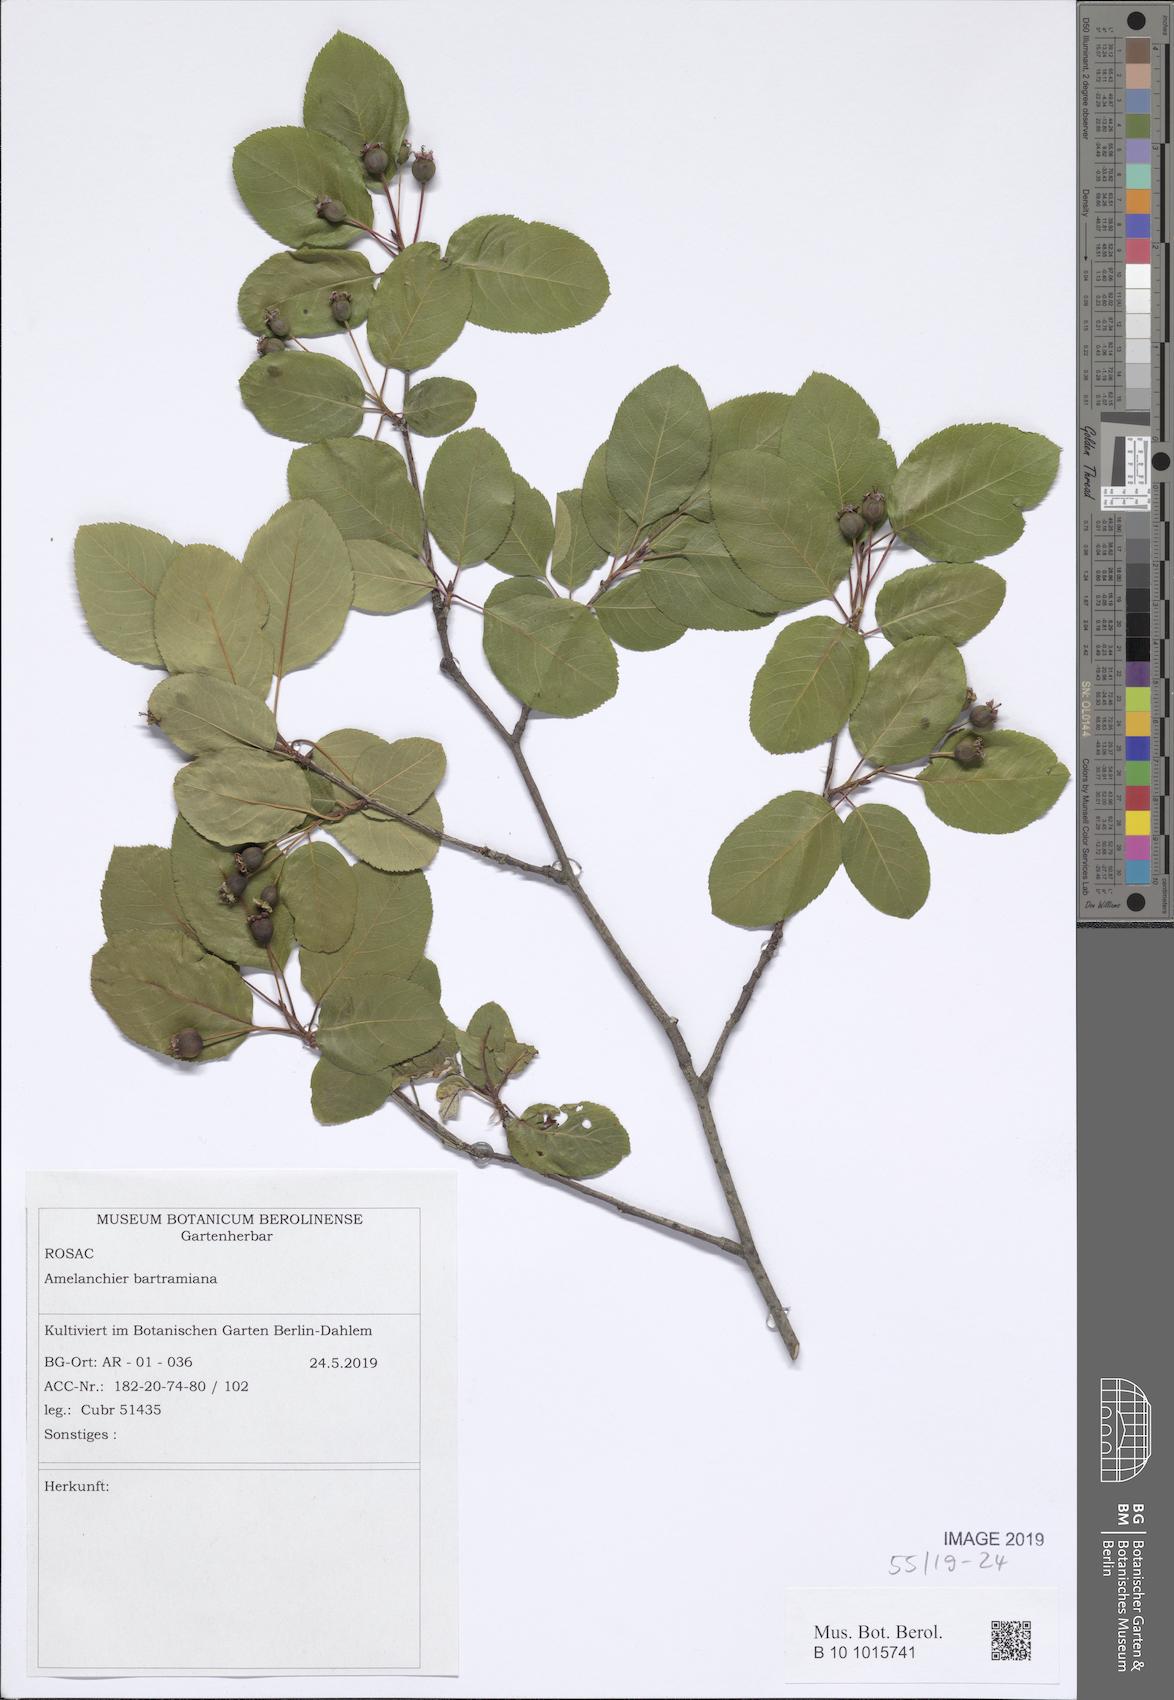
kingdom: Plantae
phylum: Tracheophyta
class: Magnoliopsida
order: Rosales
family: Rosaceae
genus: Amelanchier
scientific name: Amelanchier bartramiana
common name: Mountain serviceberry
